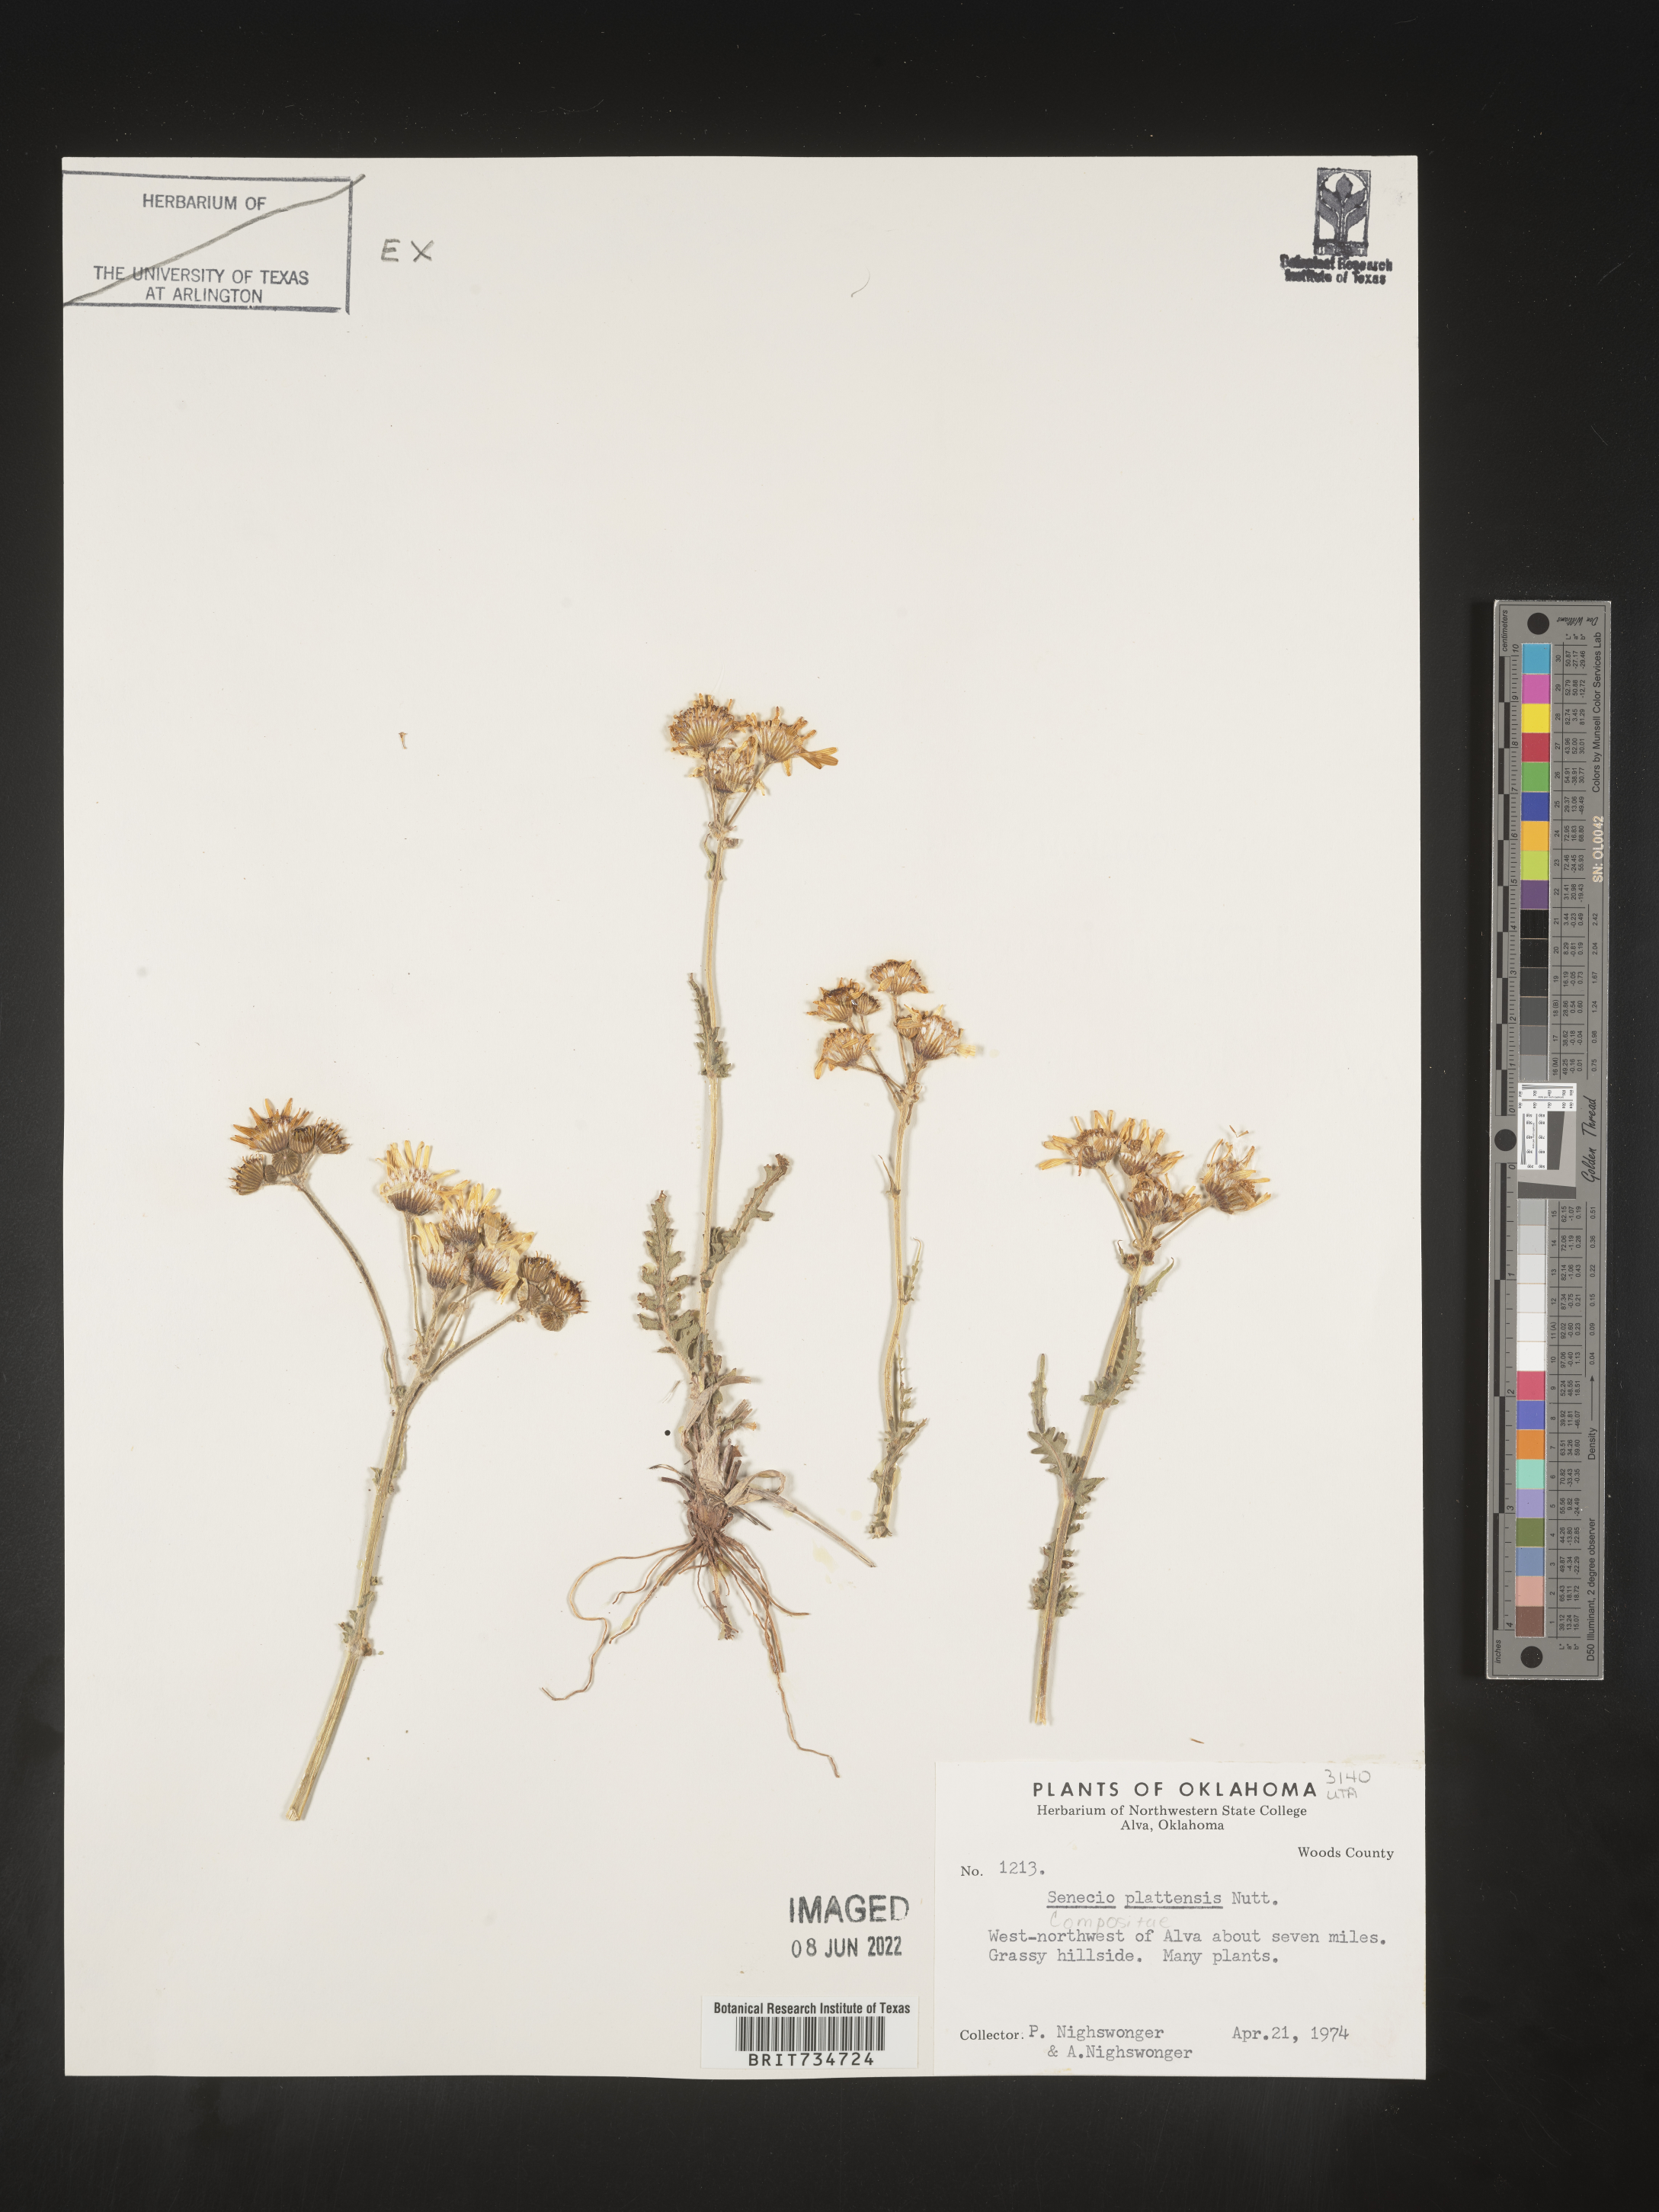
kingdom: Plantae
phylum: Tracheophyta
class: Magnoliopsida
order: Asterales
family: Asteraceae
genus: Packera
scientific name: Packera plattensis
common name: Prairie groundsel
